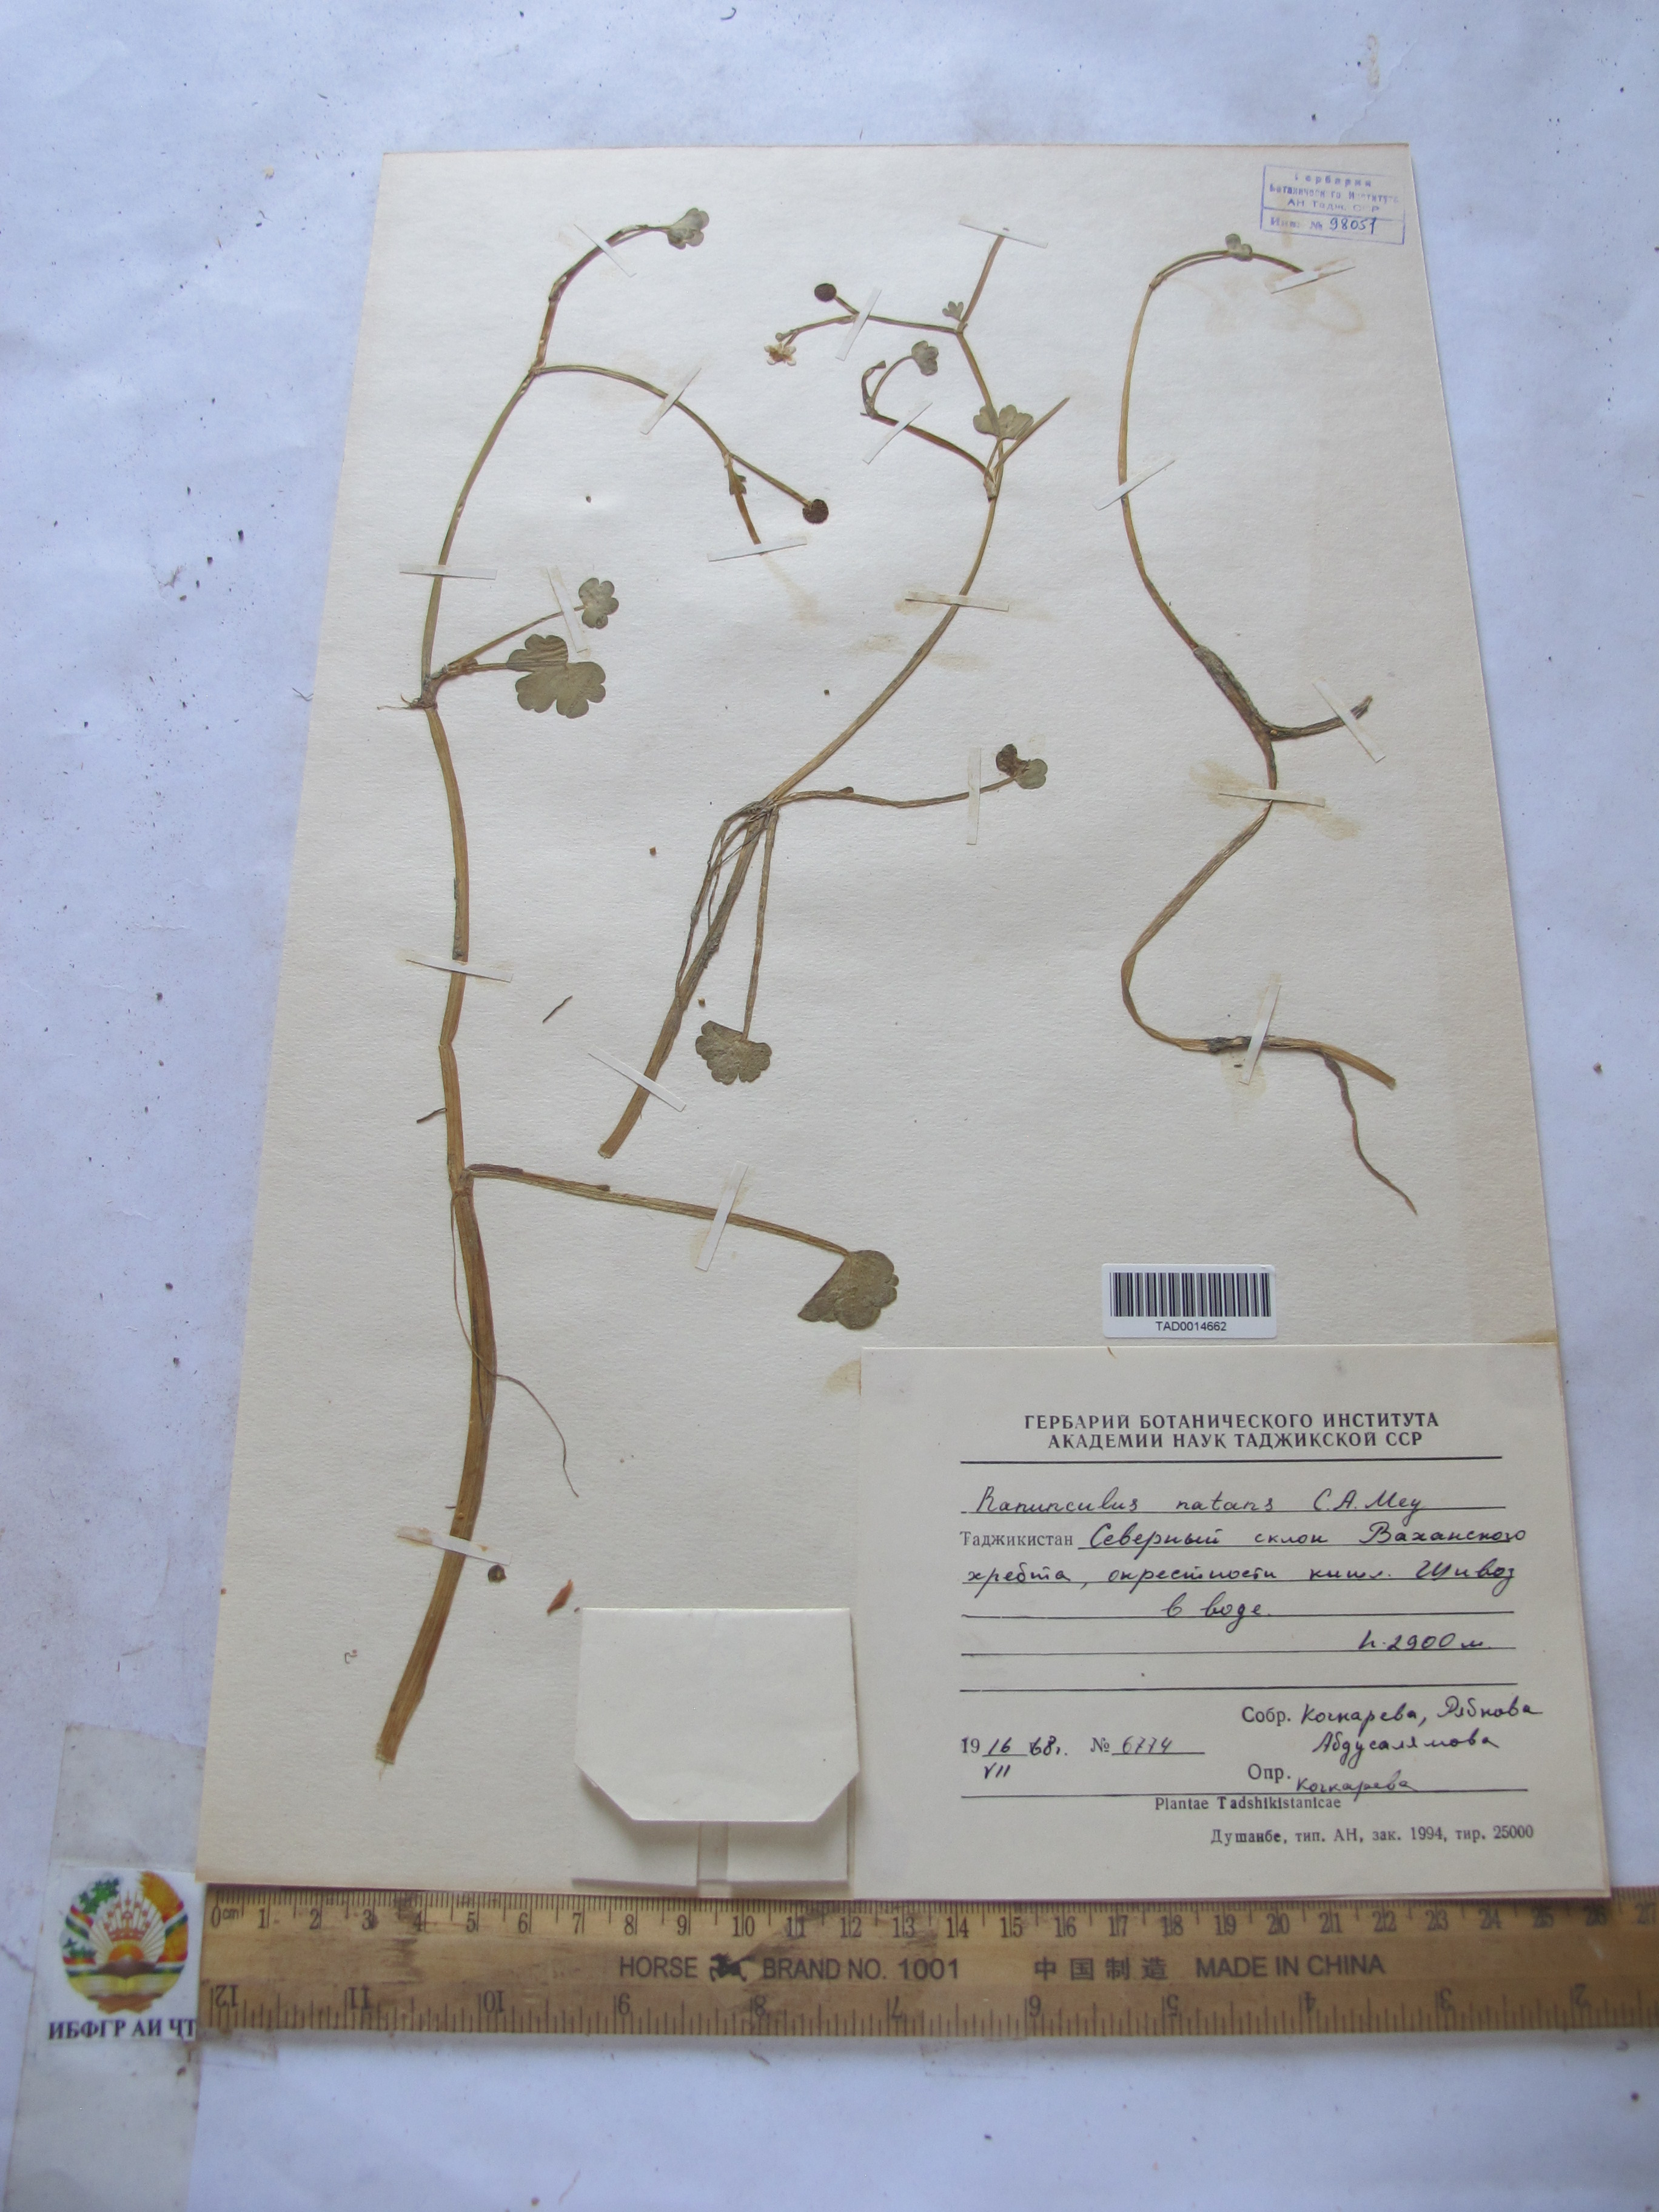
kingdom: Plantae
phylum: Tracheophyta
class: Magnoliopsida
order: Ranunculales
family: Ranunculaceae
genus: Ranunculus
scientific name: Ranunculus natans
